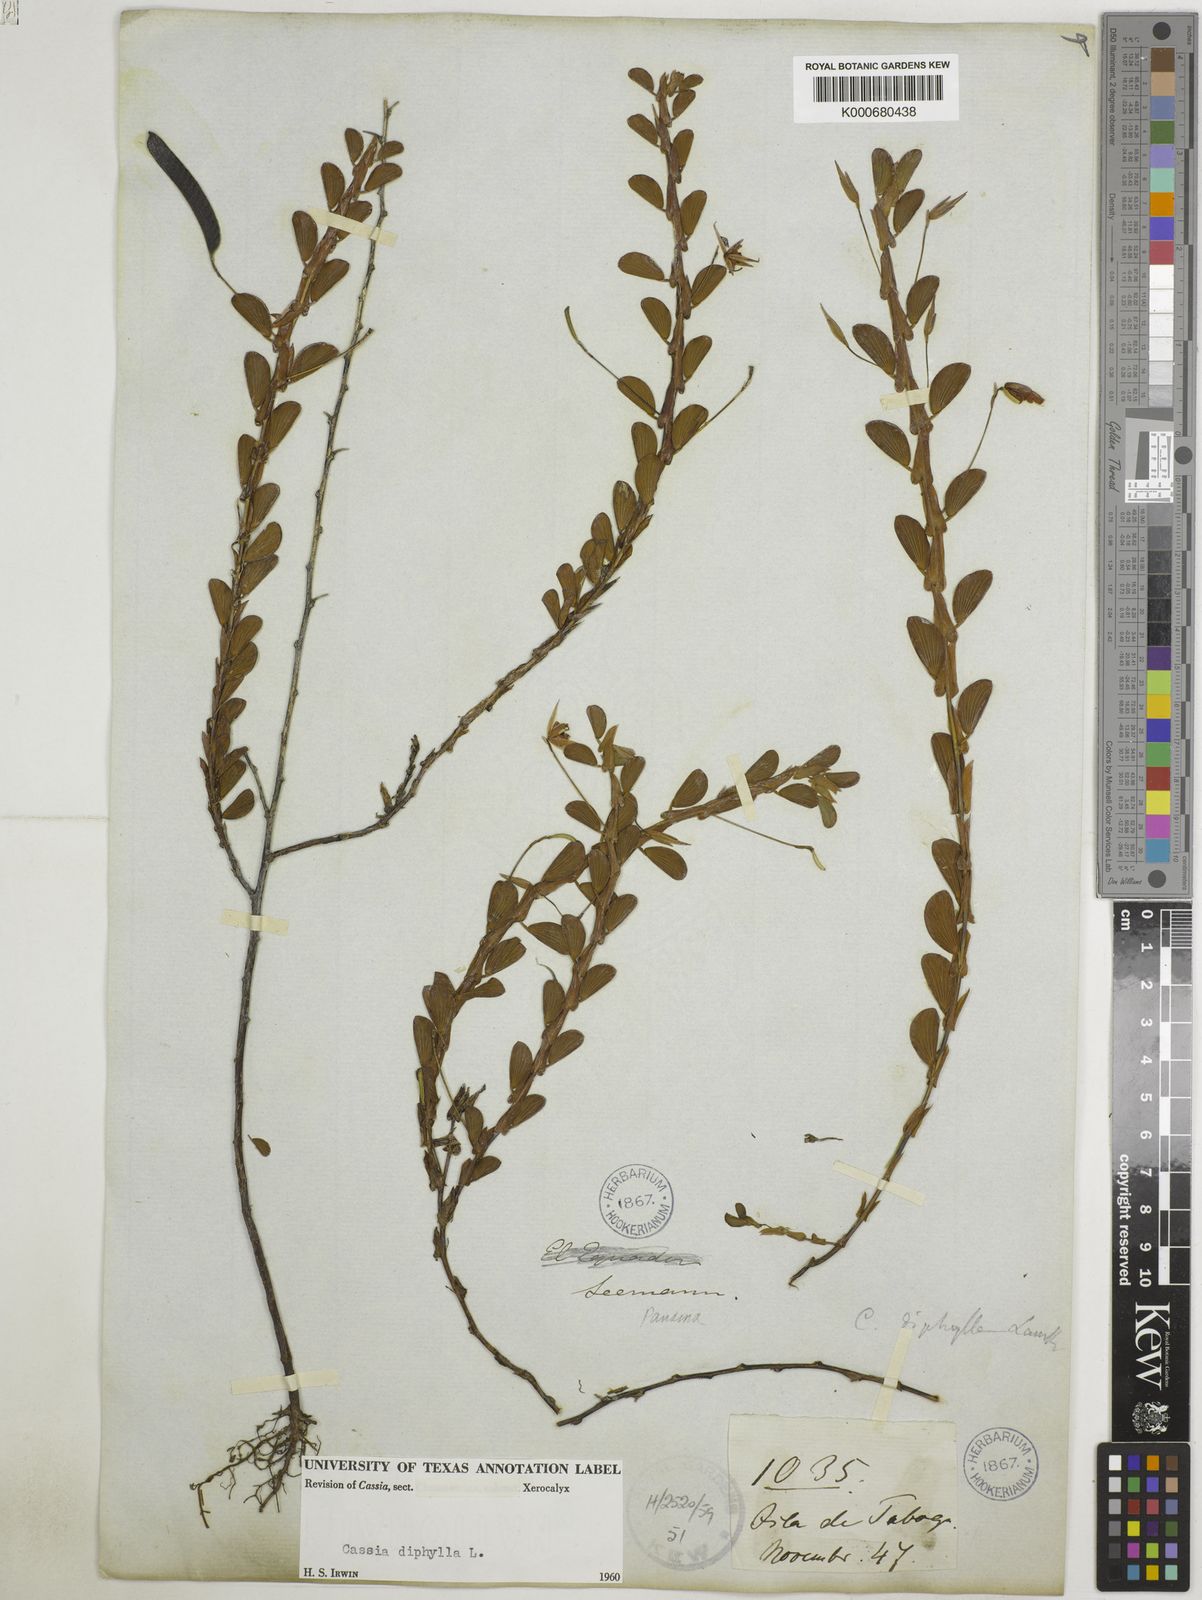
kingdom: Plantae
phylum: Tracheophyta
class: Magnoliopsida
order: Fabales
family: Fabaceae
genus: Chamaecrista
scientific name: Chamaecrista diphylla
